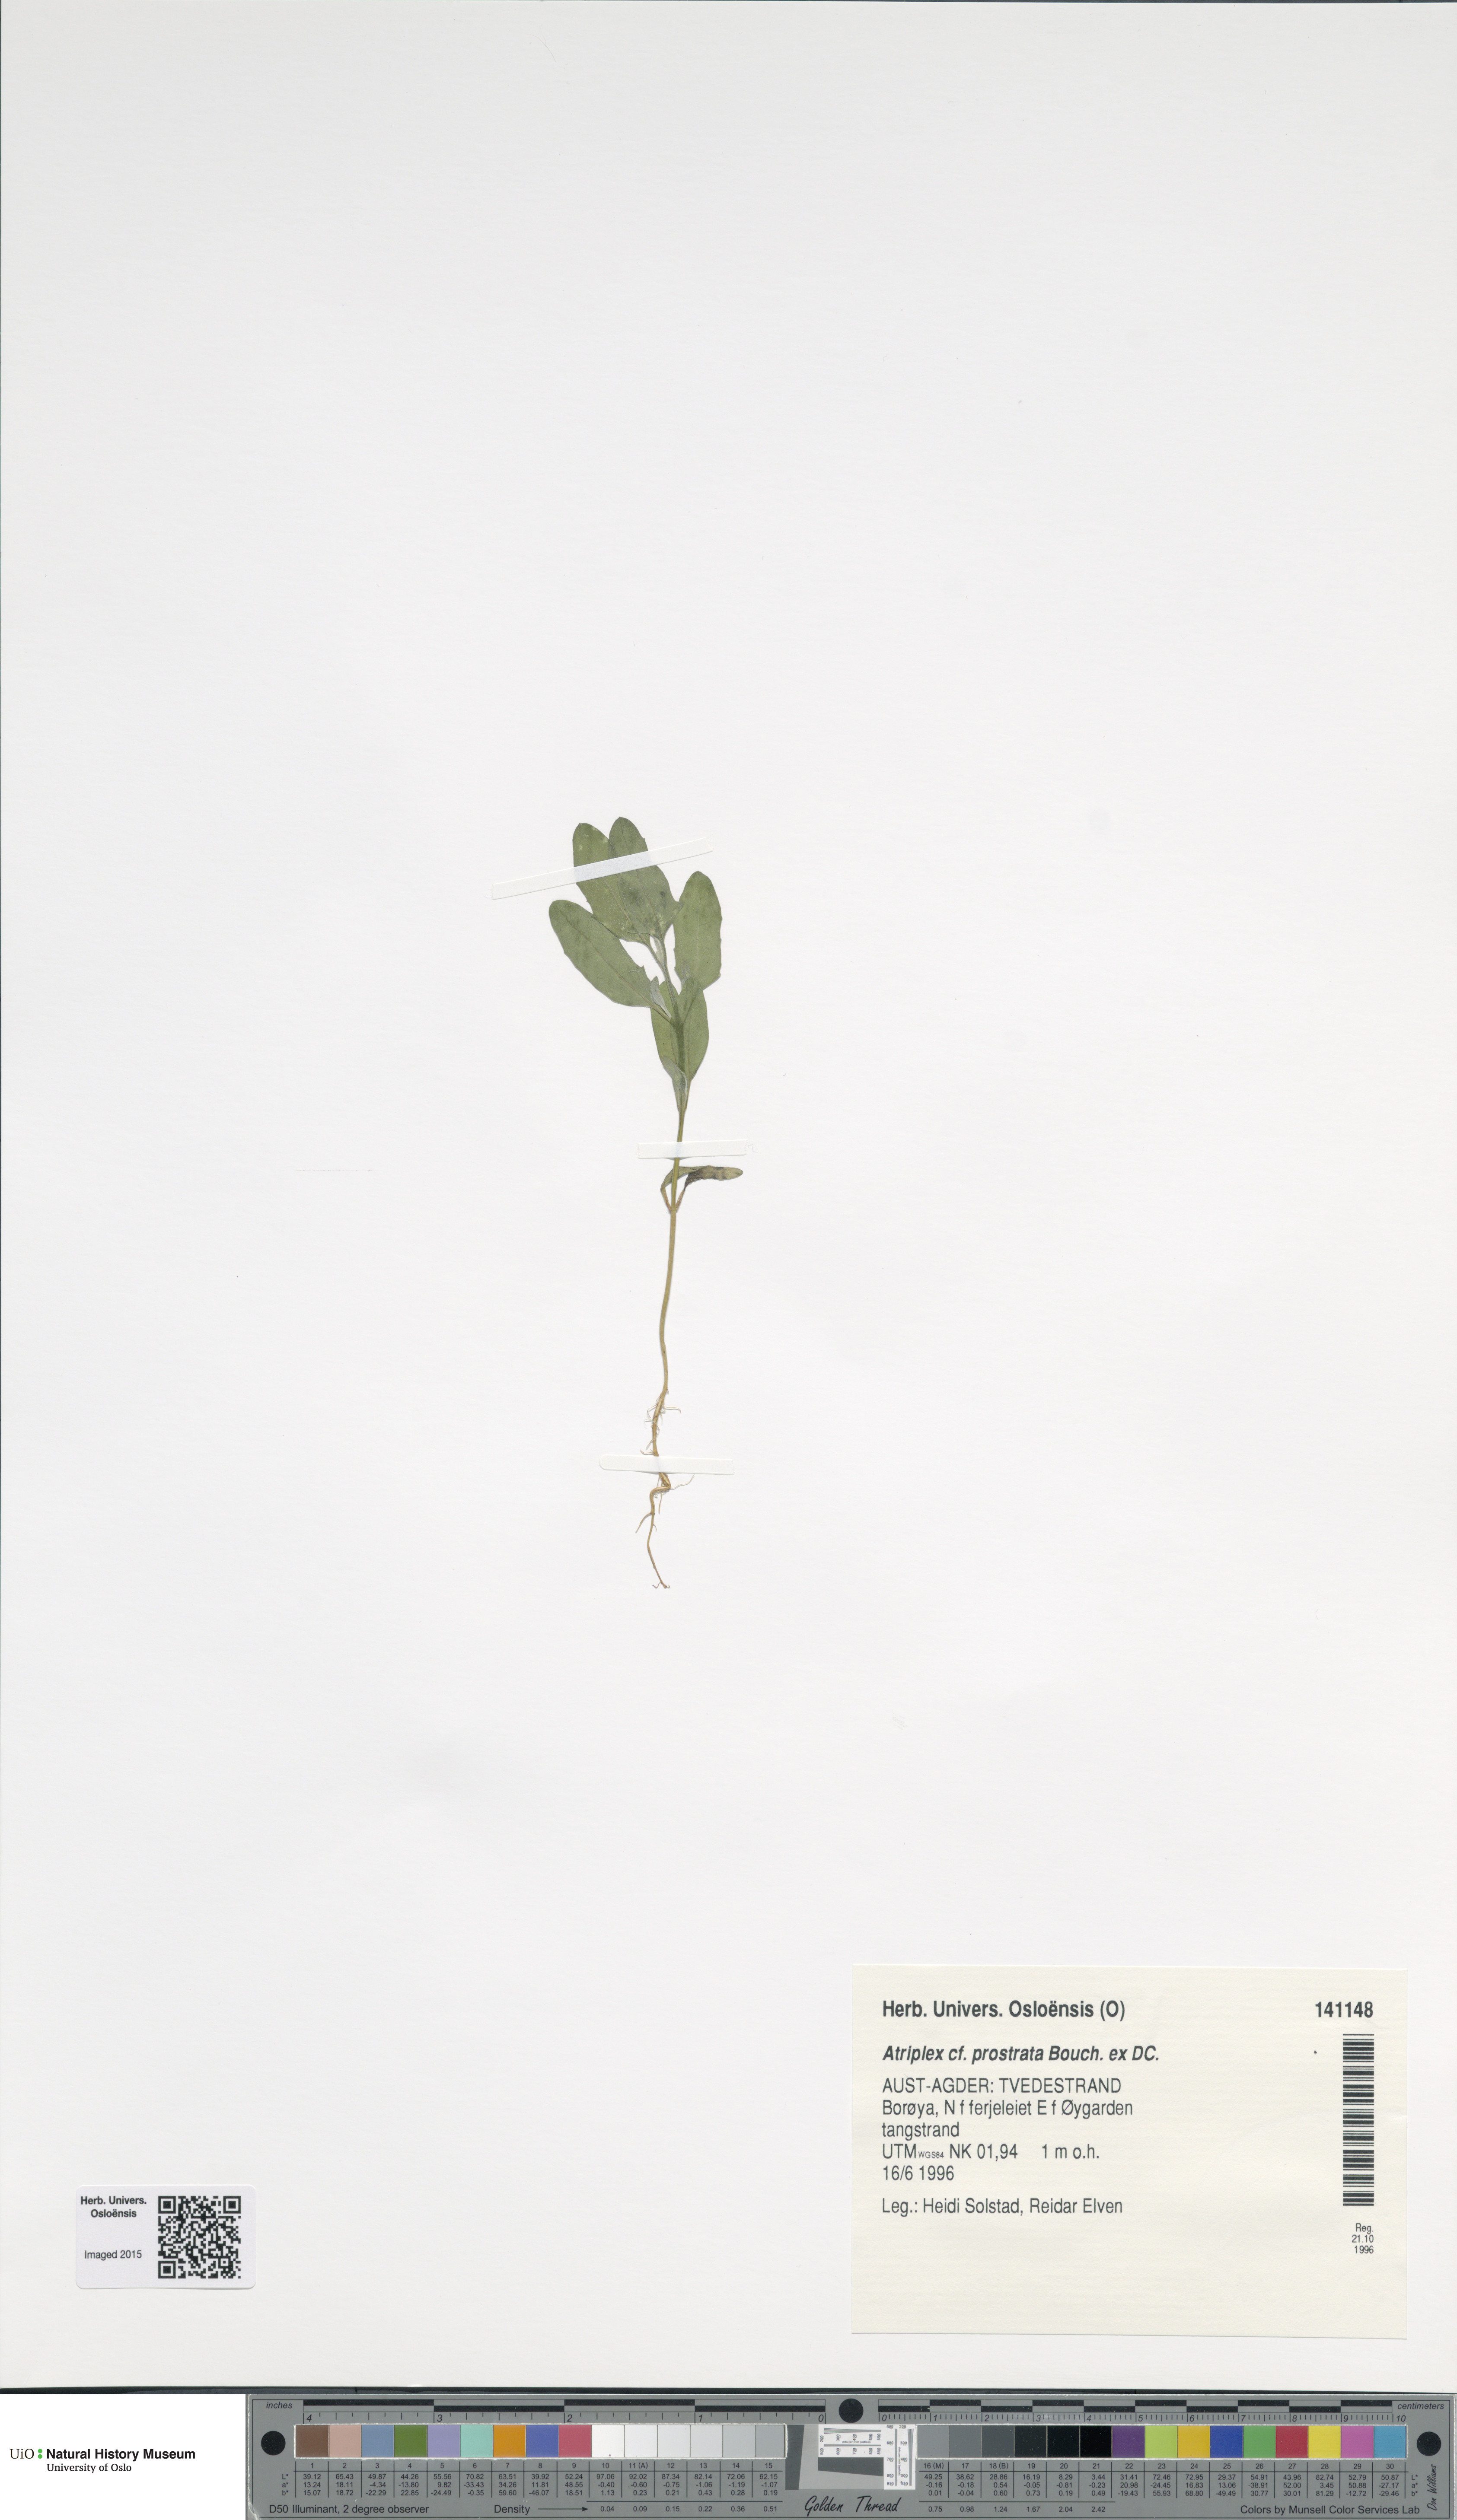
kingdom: Plantae
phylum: Tracheophyta
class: Magnoliopsida
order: Caryophyllales
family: Amaranthaceae
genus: Atriplex
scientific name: Atriplex prostrata
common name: Spear-leaved orache
